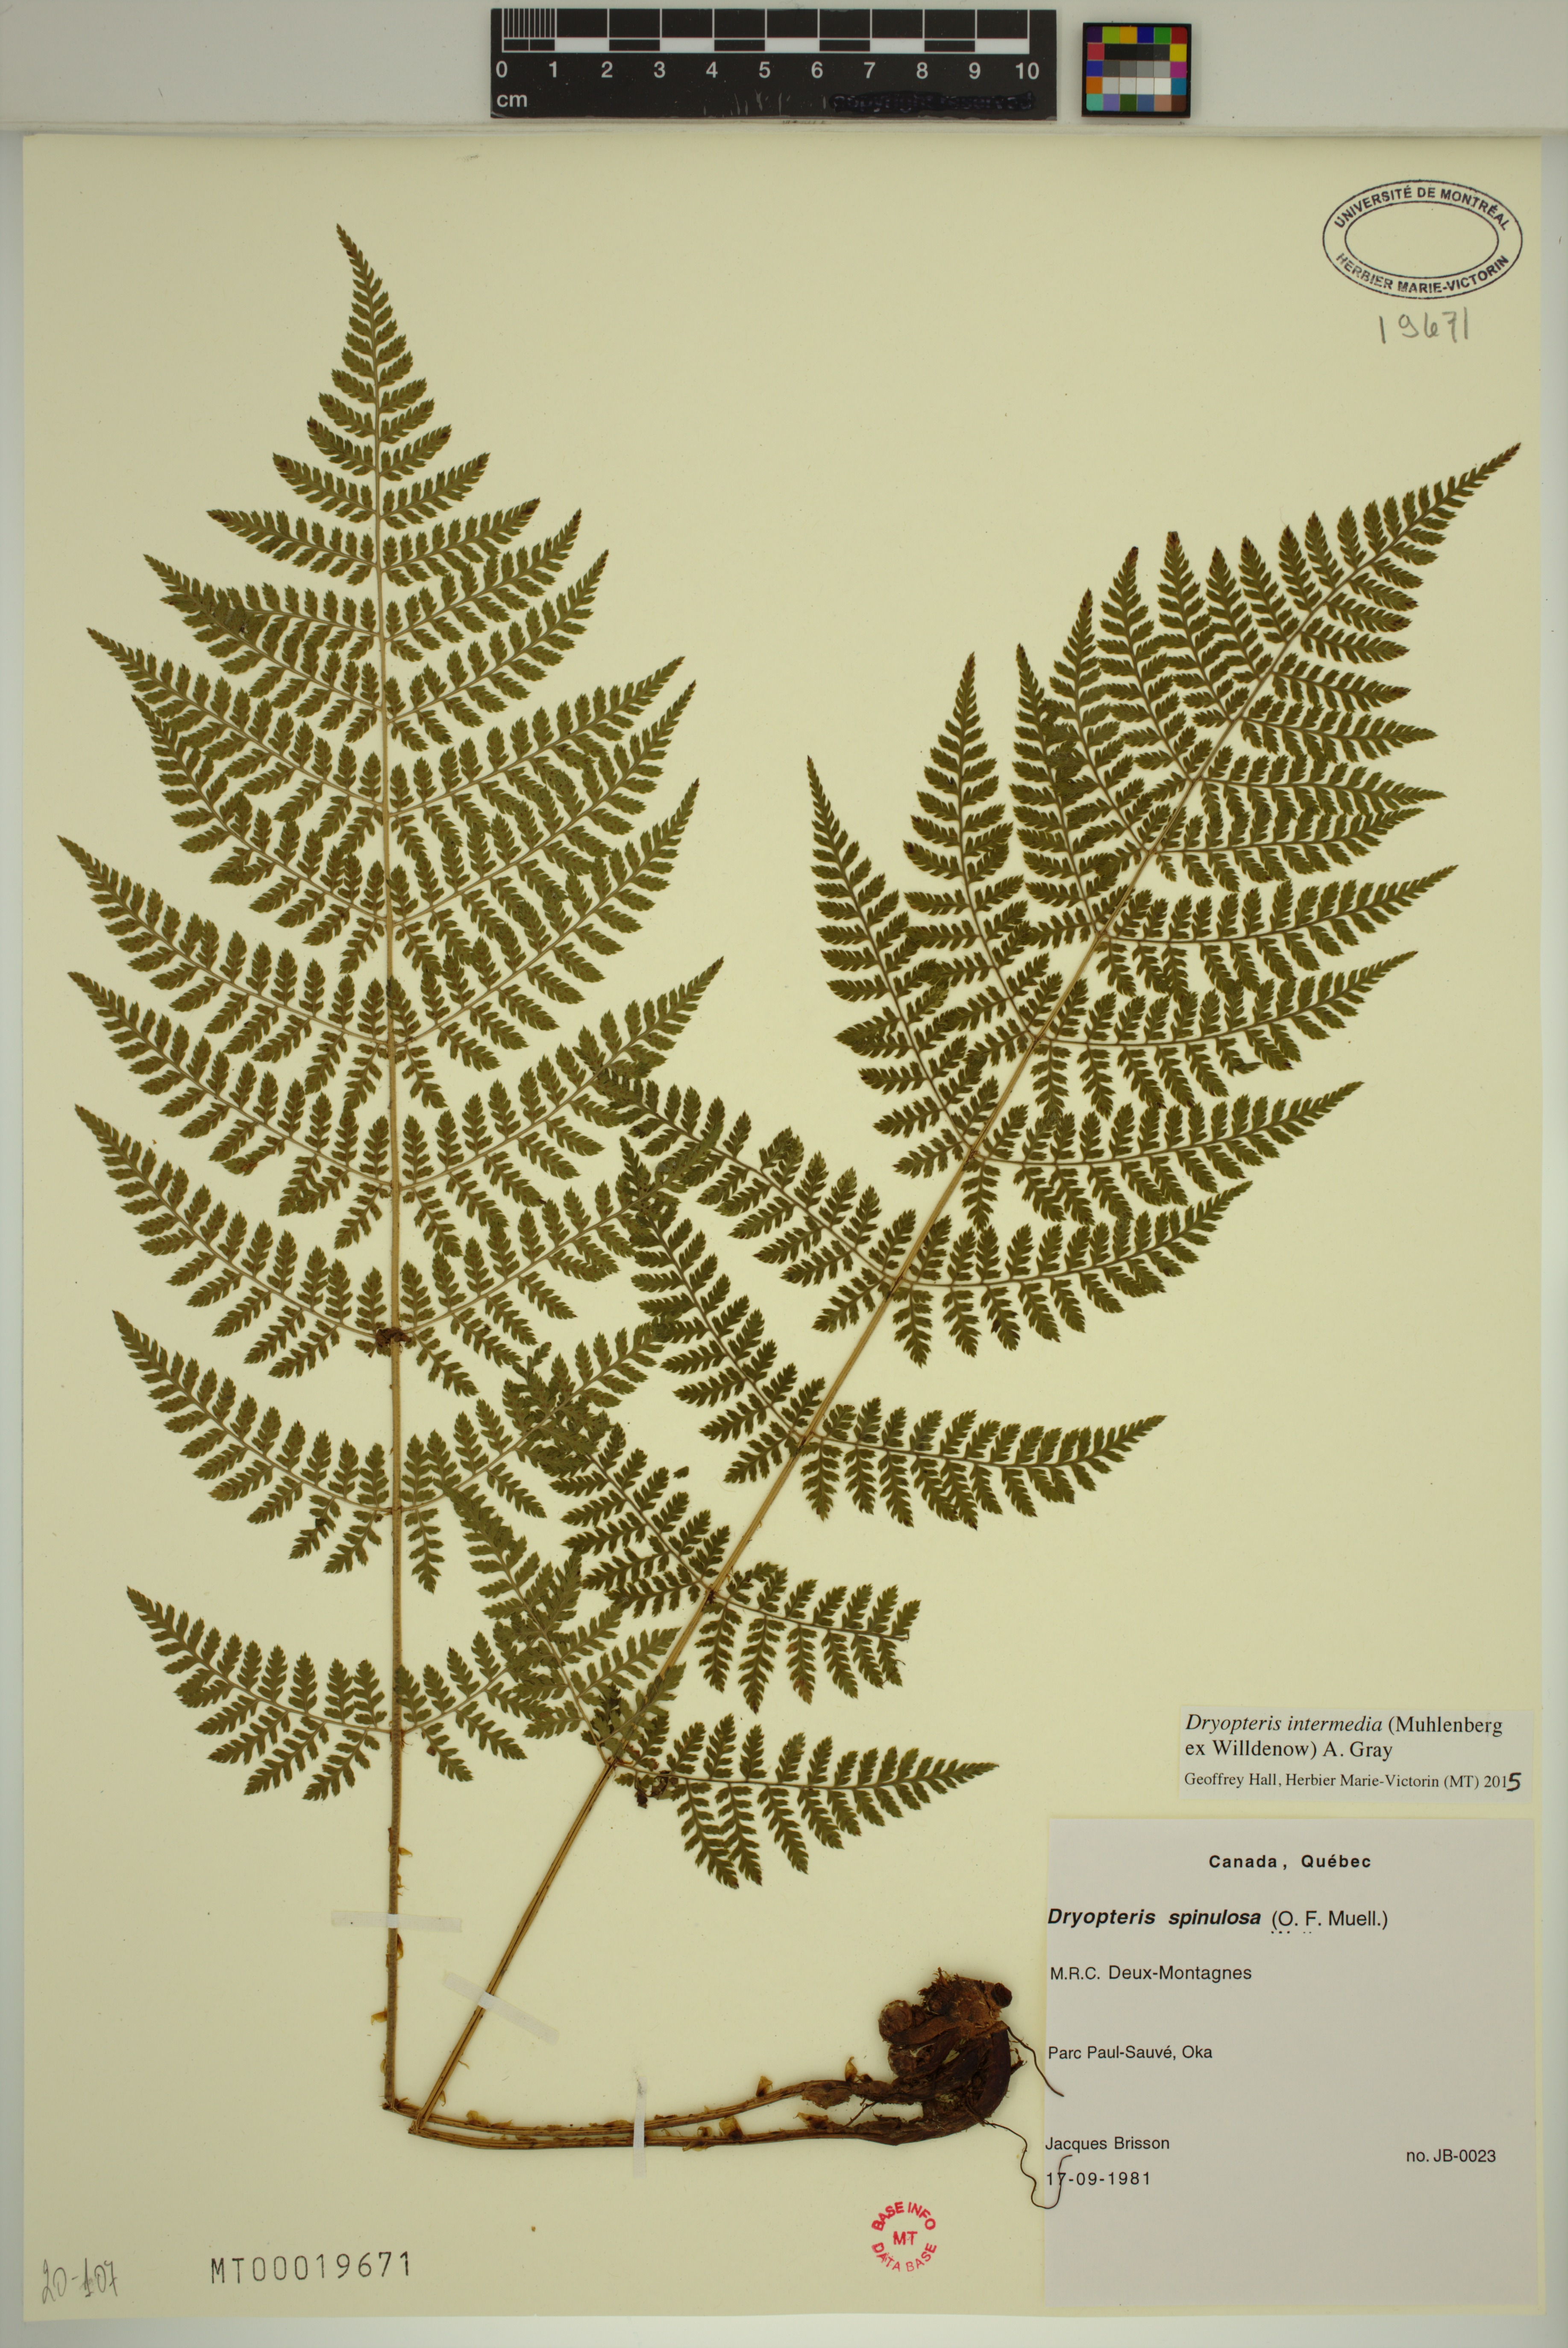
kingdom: Plantae
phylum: Tracheophyta
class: Polypodiopsida
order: Polypodiales
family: Dryopteridaceae
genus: Dryopteris
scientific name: Dryopteris intermedia
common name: Evergreen wood fern
